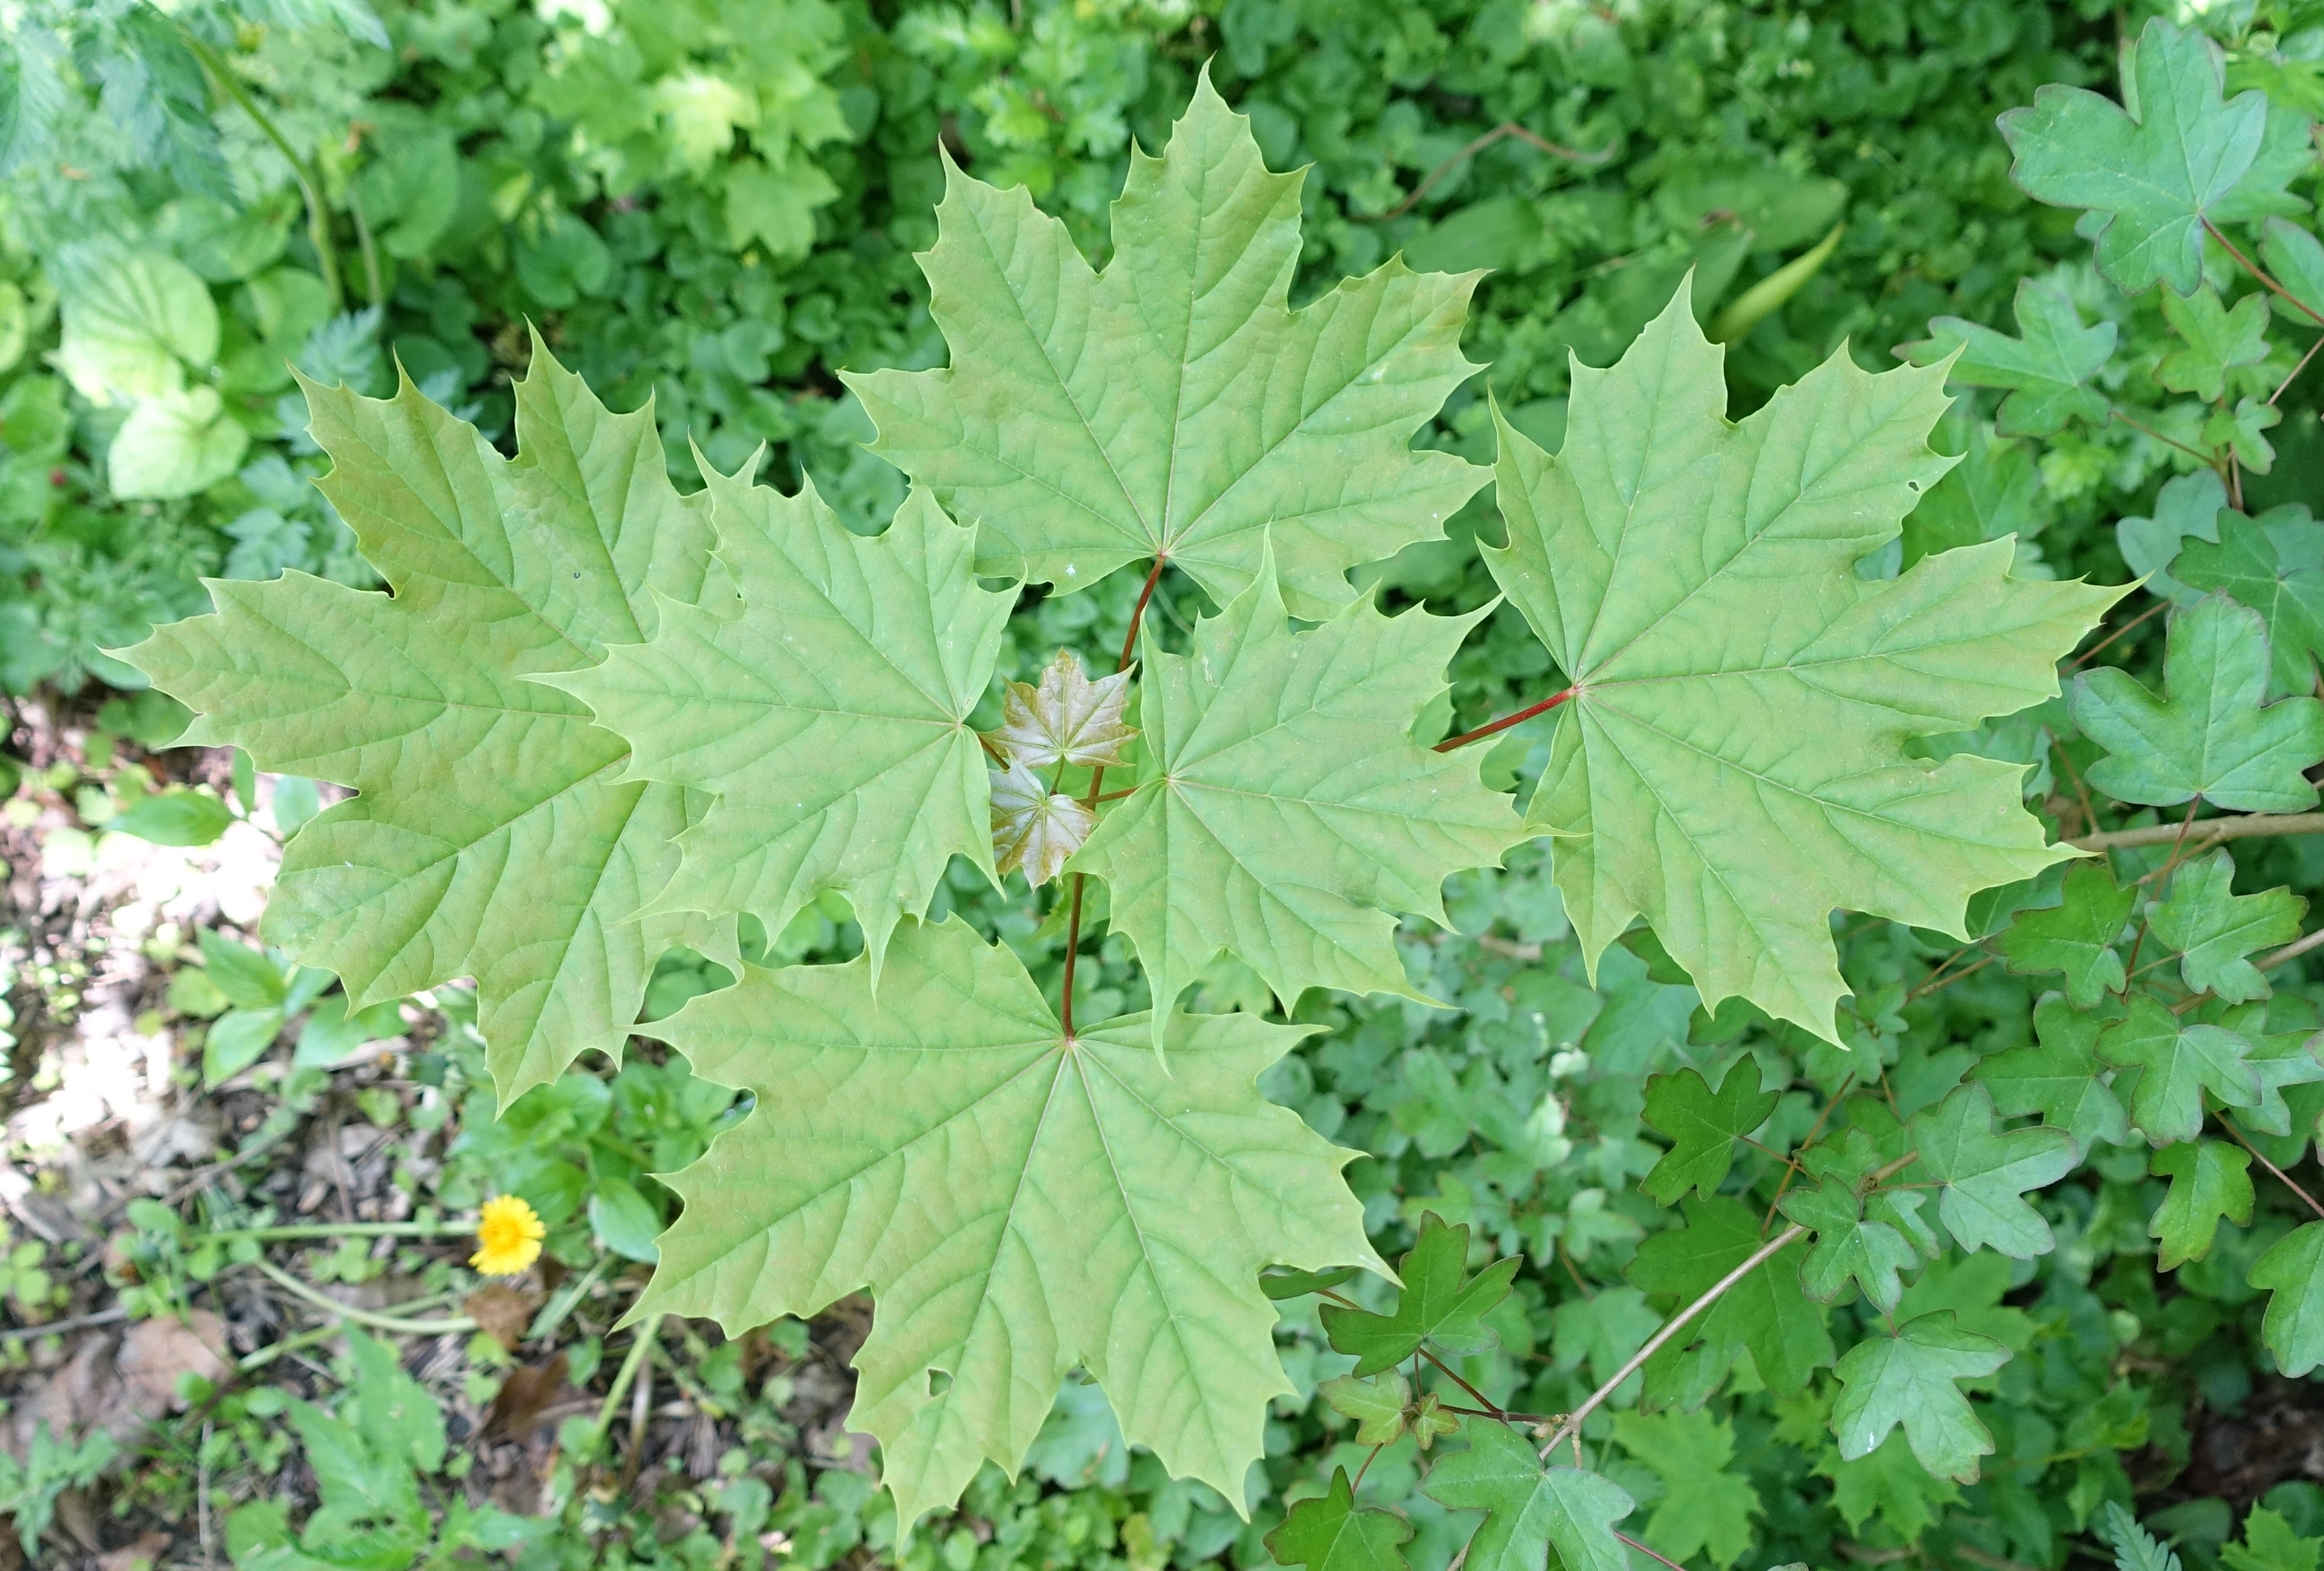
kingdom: Plantae
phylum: Tracheophyta
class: Magnoliopsida
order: Sapindales
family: Sapindaceae
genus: Acer
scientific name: Acer platanoides
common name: Spids-løn
